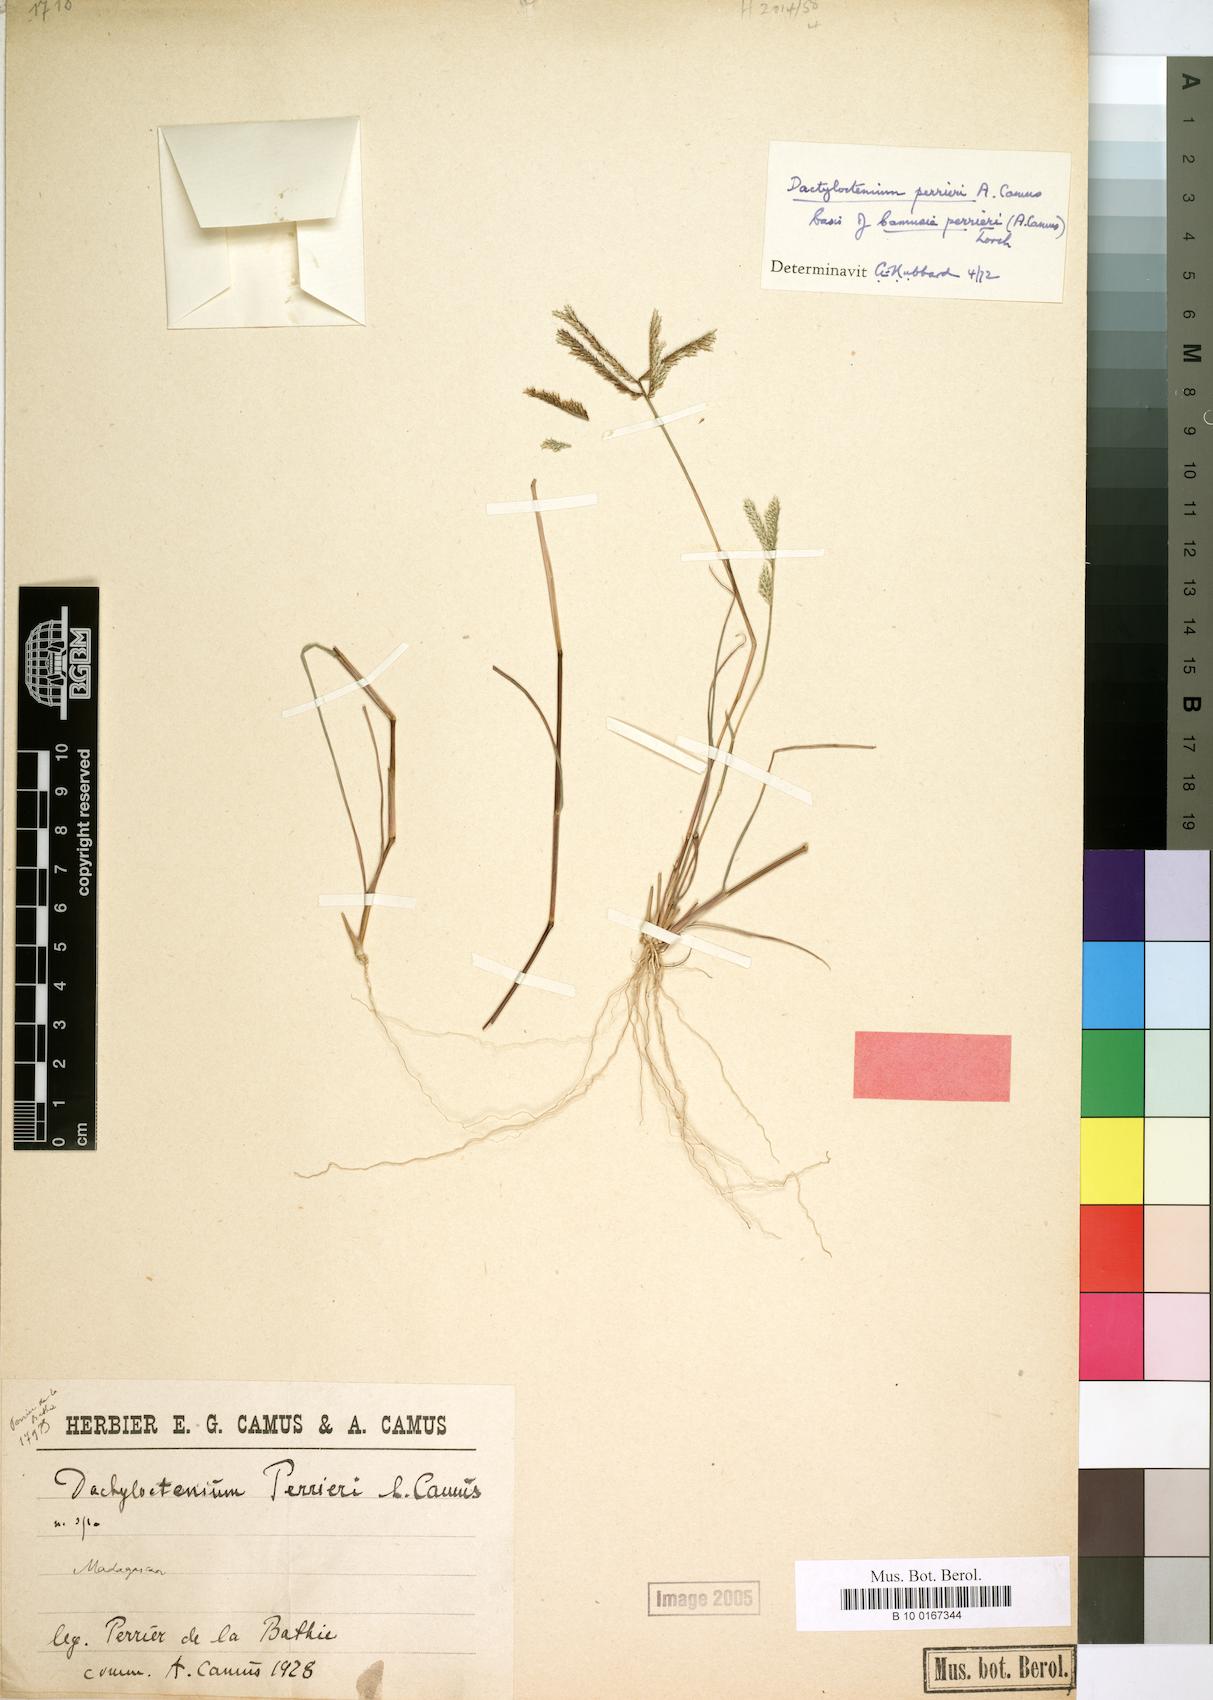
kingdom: Plantae
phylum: Tracheophyta
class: Liliopsida
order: Poales
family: Poaceae
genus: Acrachne
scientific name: Acrachne perrieri
